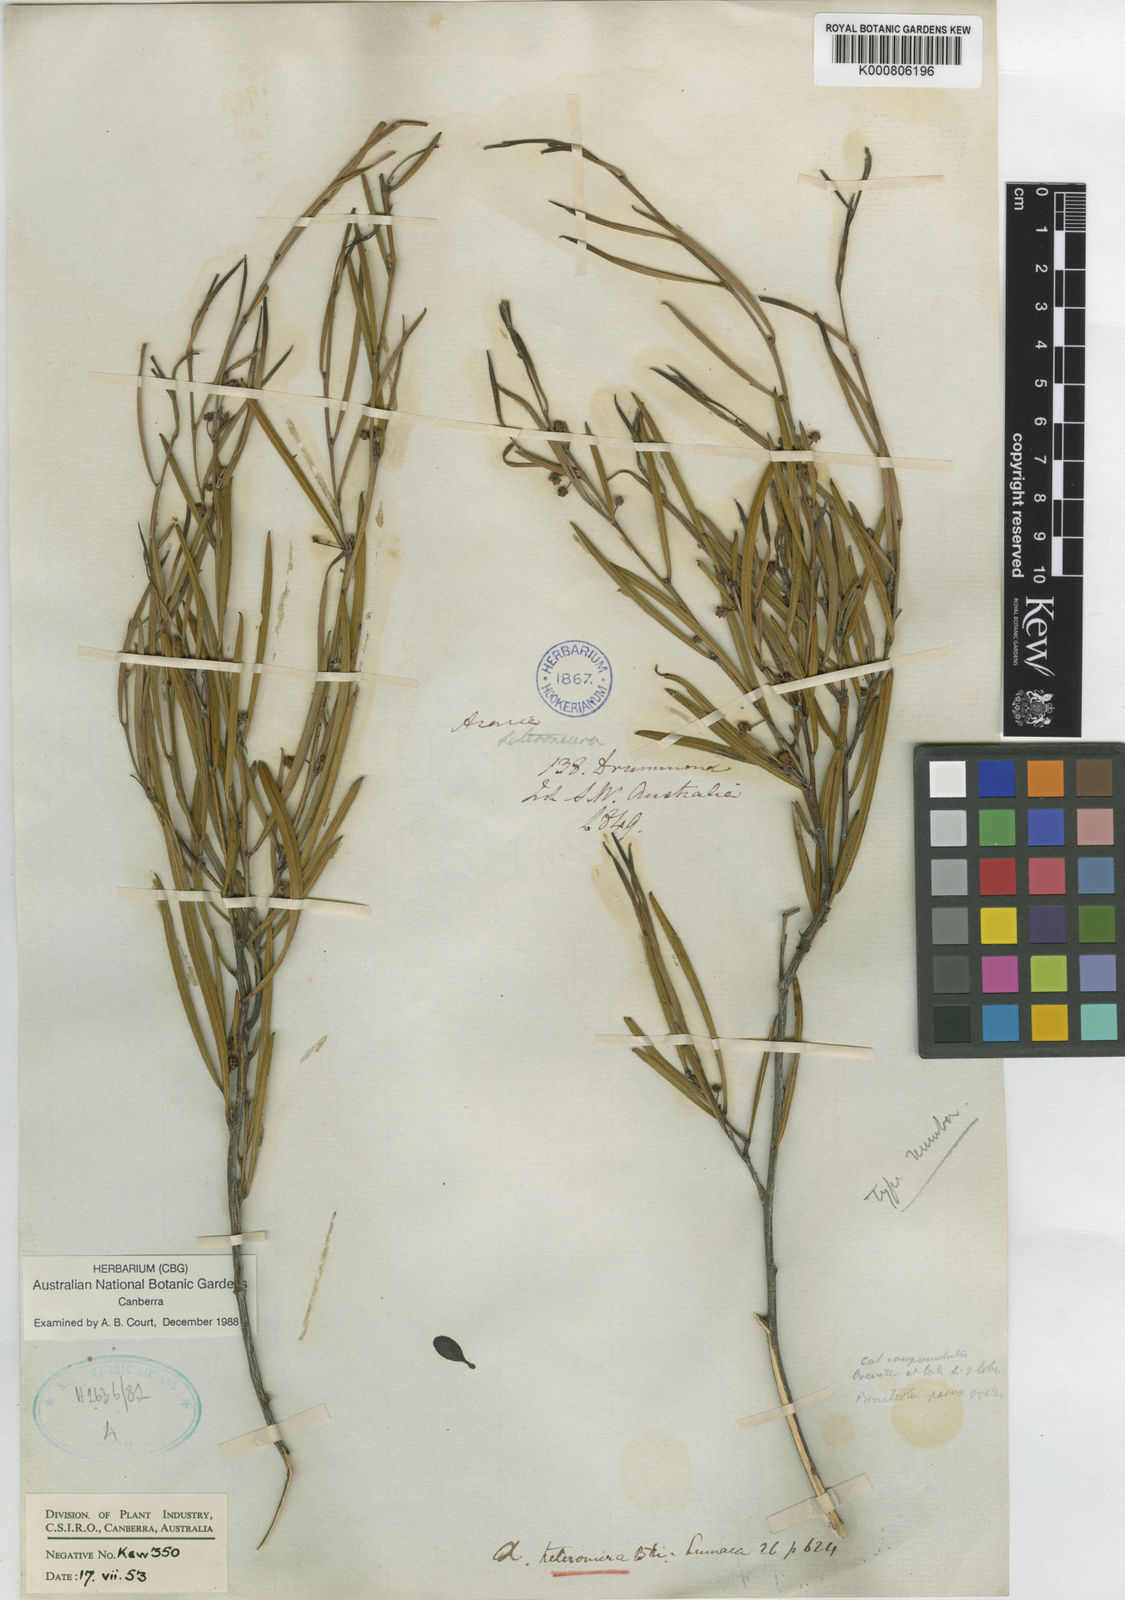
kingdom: Plantae
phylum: Tracheophyta
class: Magnoliopsida
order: Fabales
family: Fabaceae
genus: Acacia
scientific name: Acacia heteroneura
